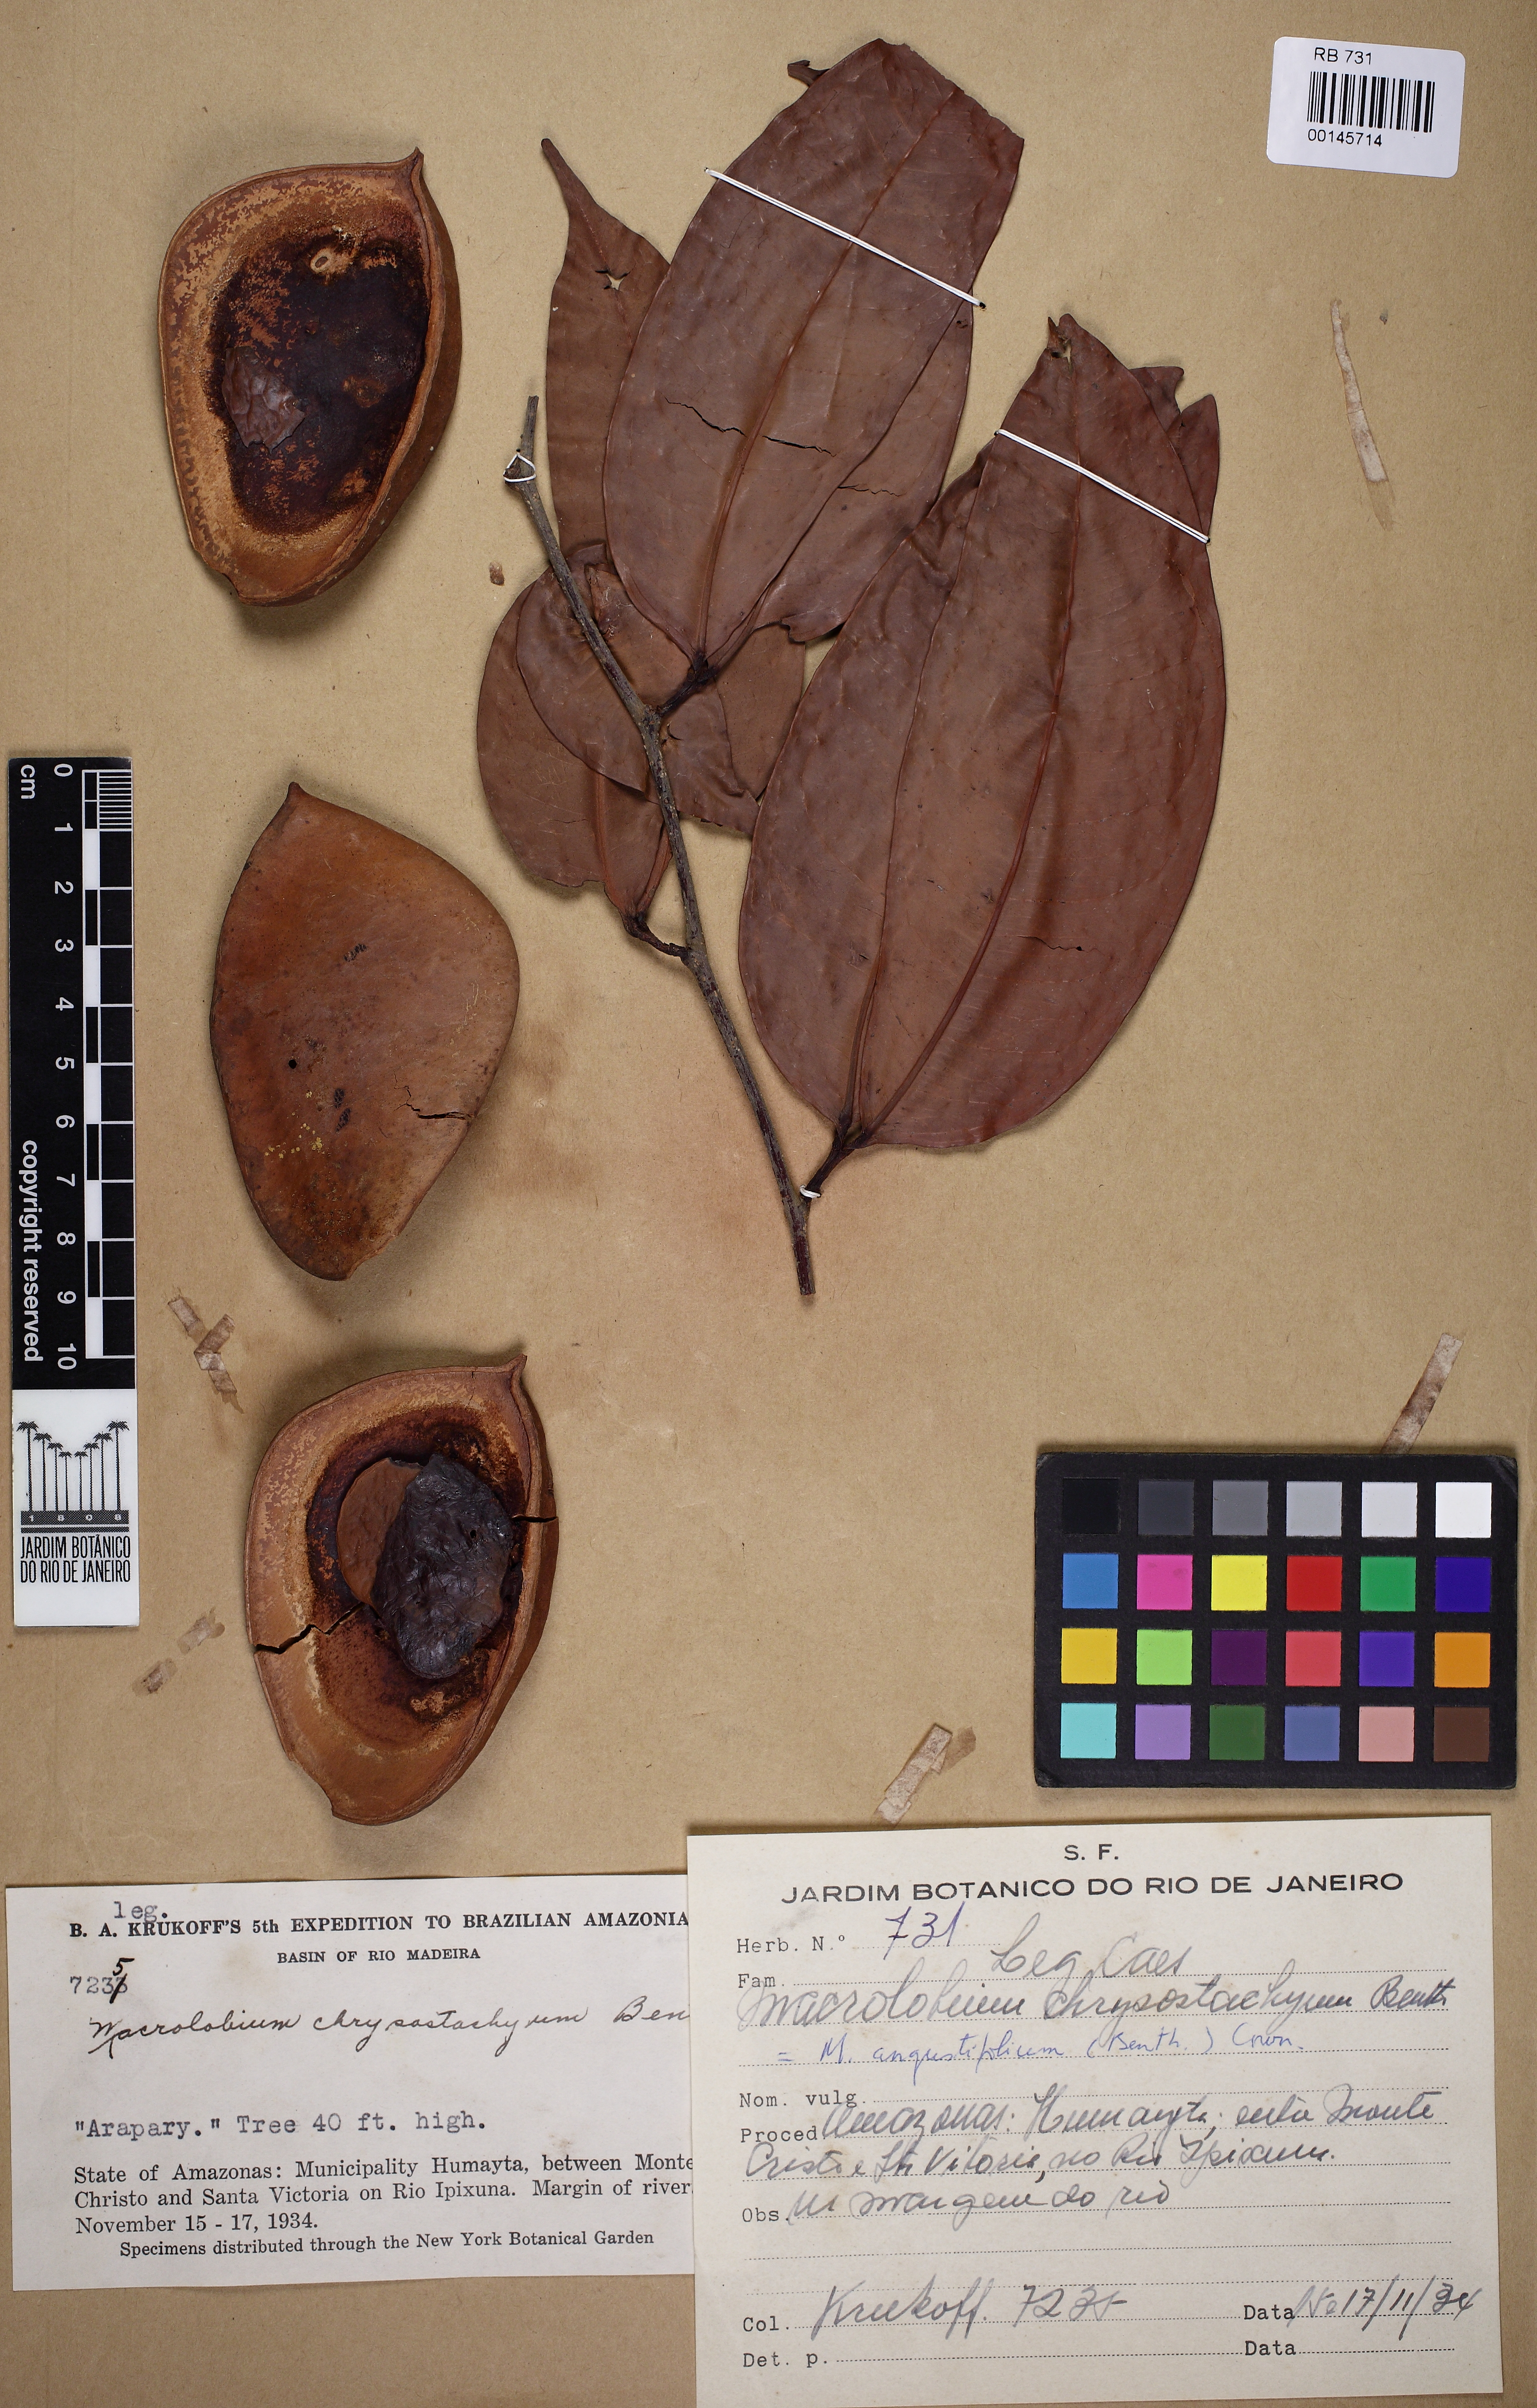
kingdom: Plantae
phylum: Tracheophyta
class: Magnoliopsida
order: Fabales
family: Fabaceae
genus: Macrolobium
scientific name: Macrolobium angustifolium
